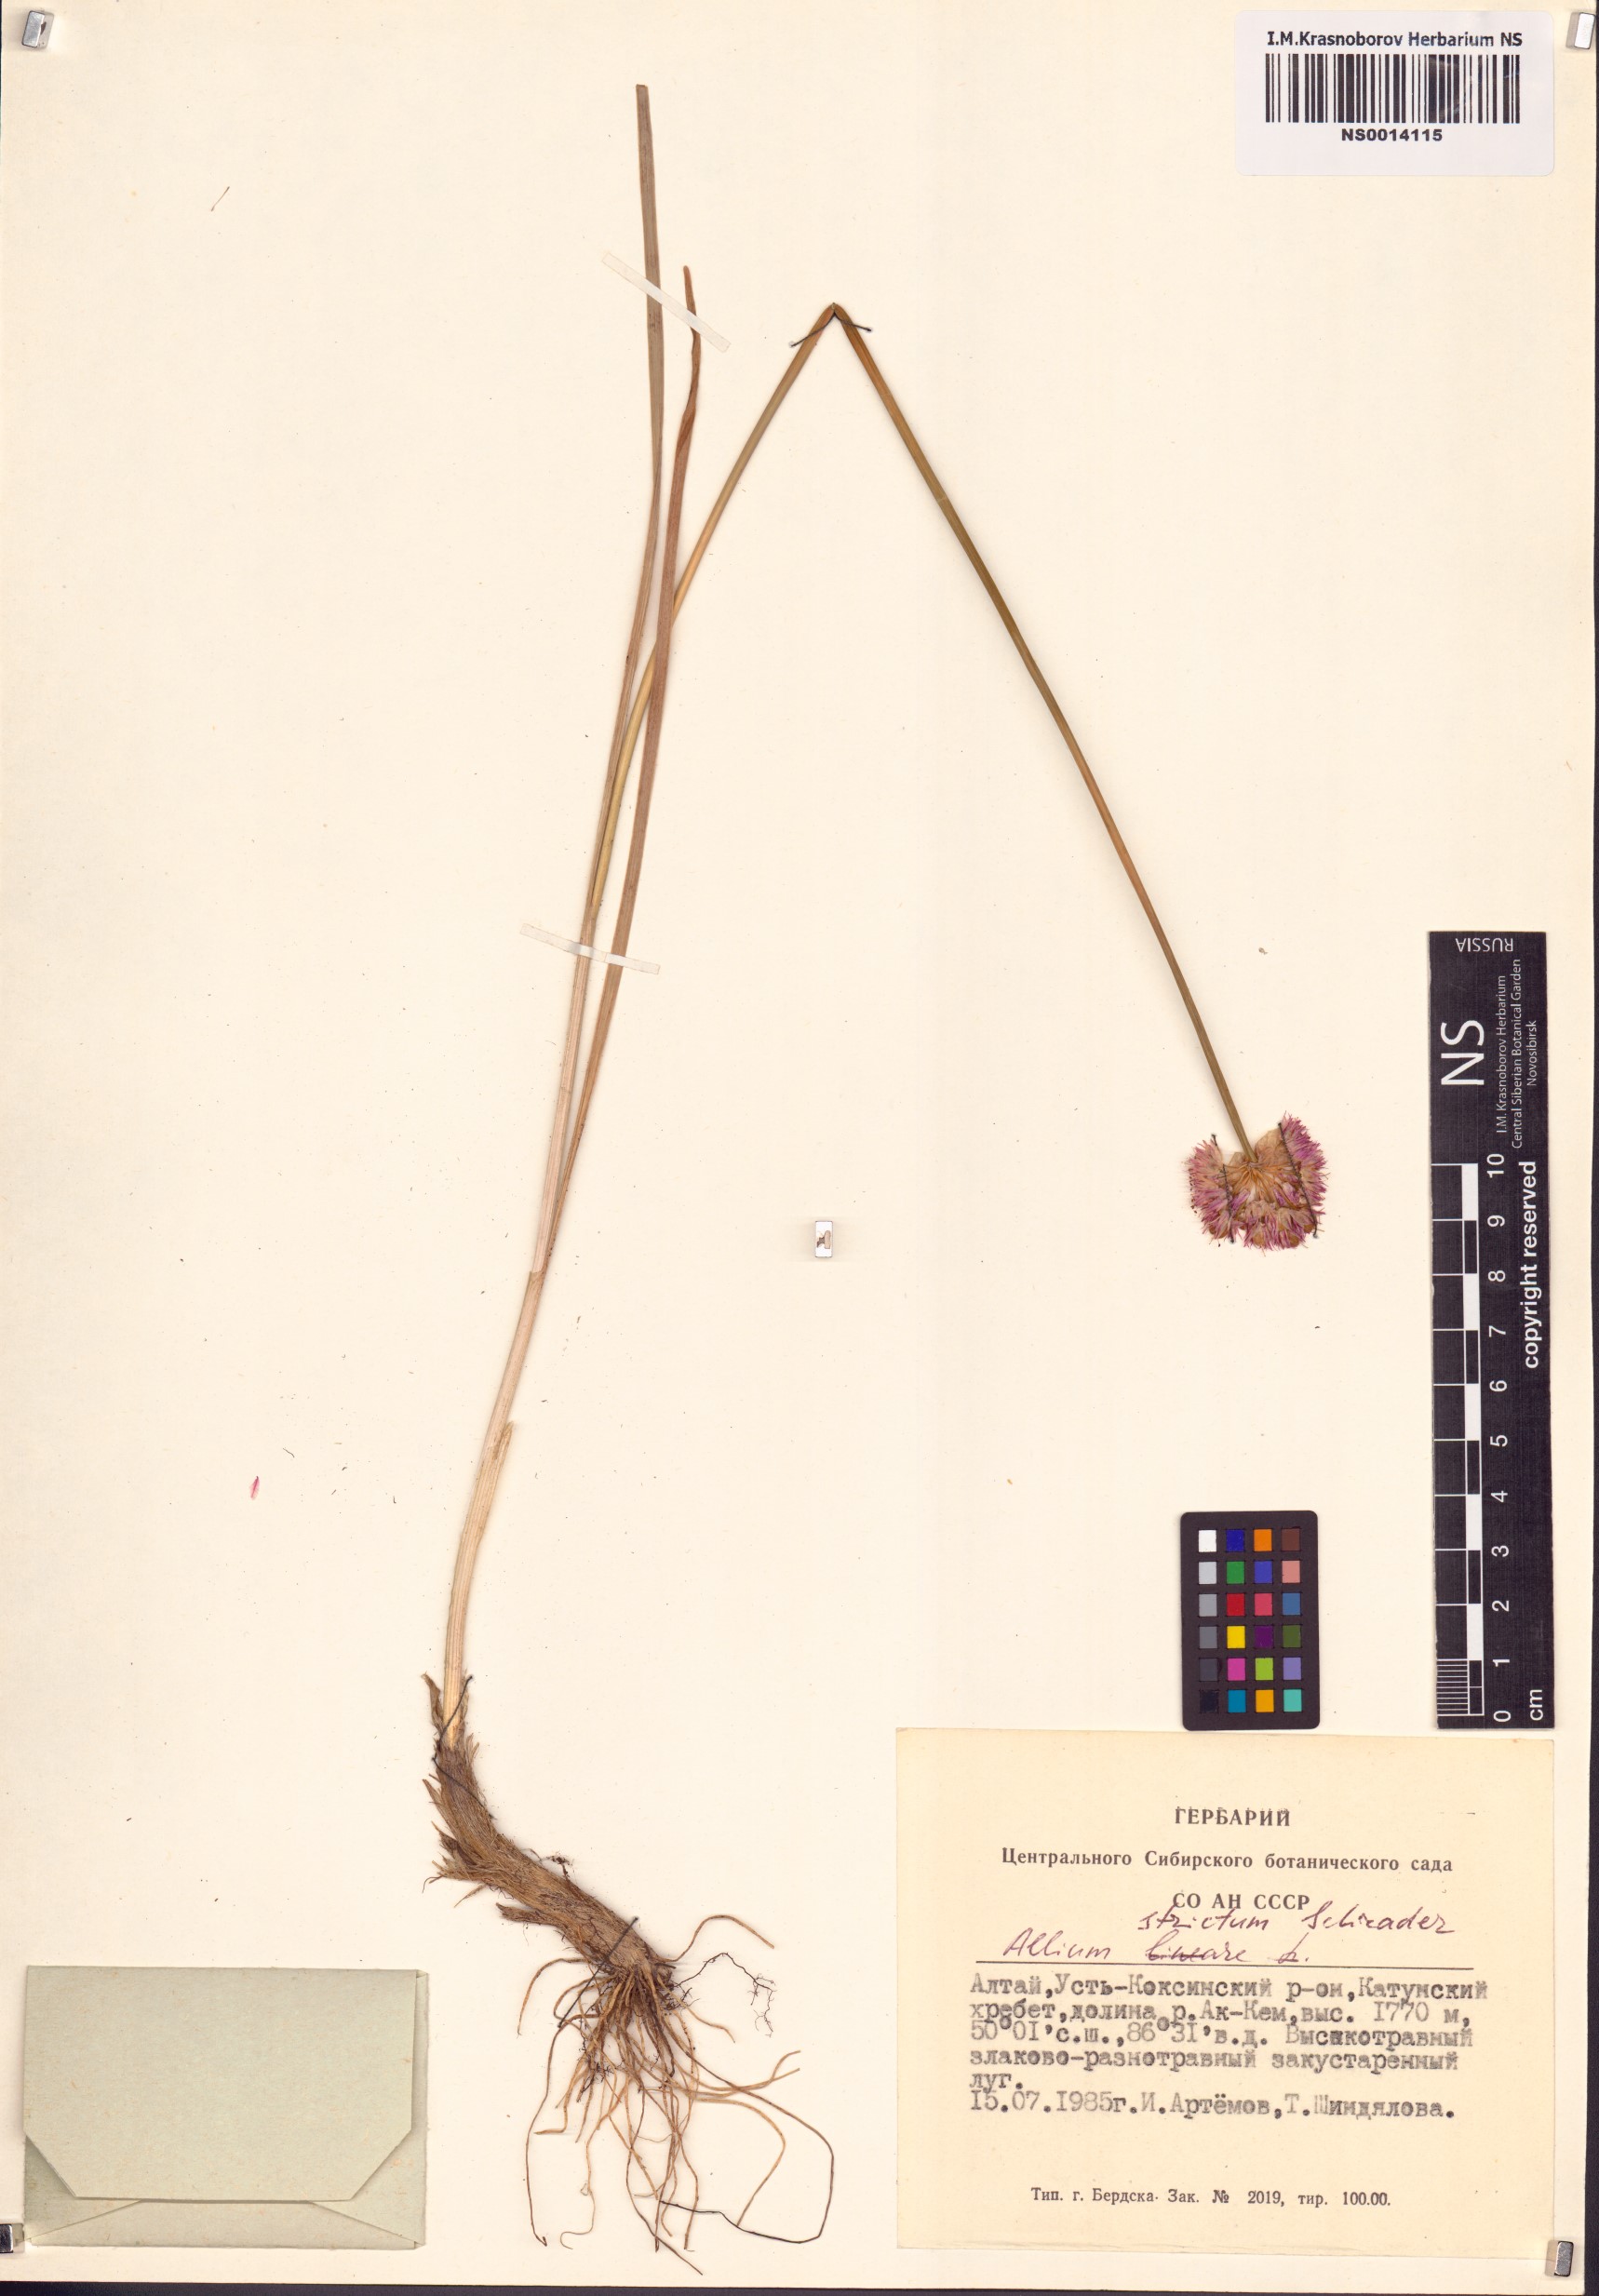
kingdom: Plantae
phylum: Tracheophyta
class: Liliopsida
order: Asparagales
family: Amaryllidaceae
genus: Allium
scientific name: Allium strictum
